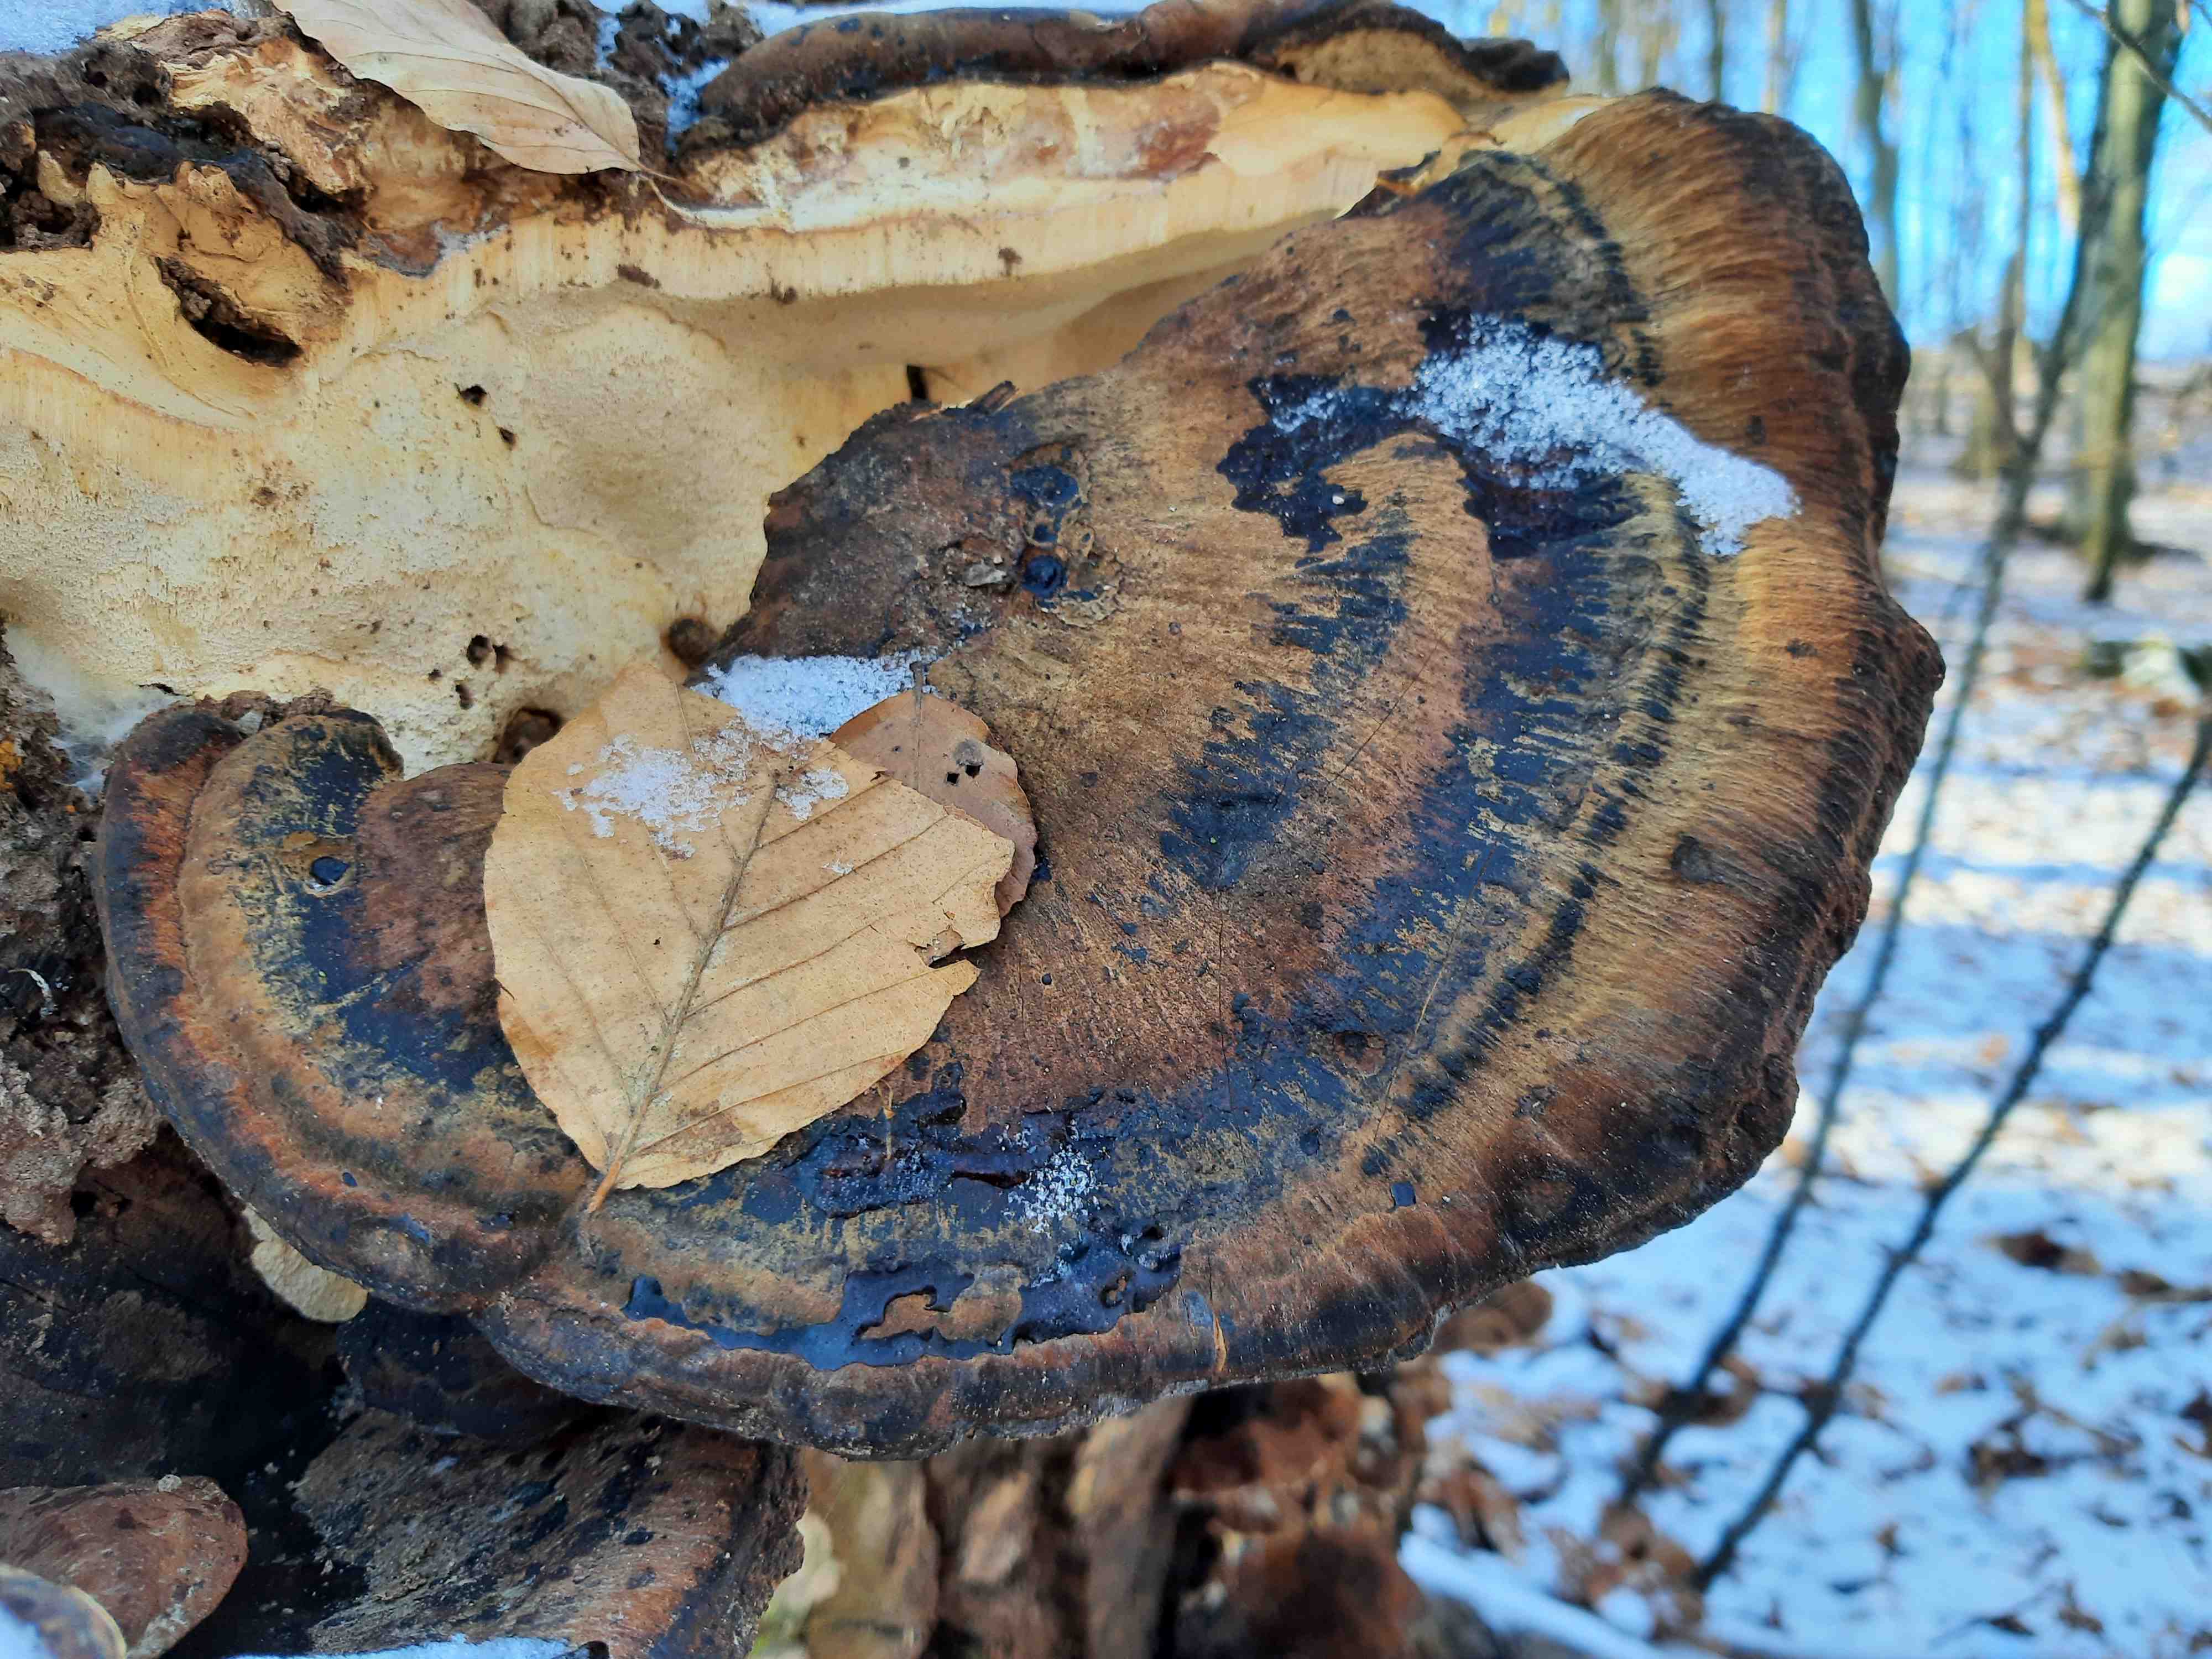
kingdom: Fungi
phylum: Basidiomycota
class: Agaricomycetes
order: Polyporales
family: Ischnodermataceae
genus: Ischnoderma
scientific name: Ischnoderma resinosum
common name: løv-tjæreporesvamp
